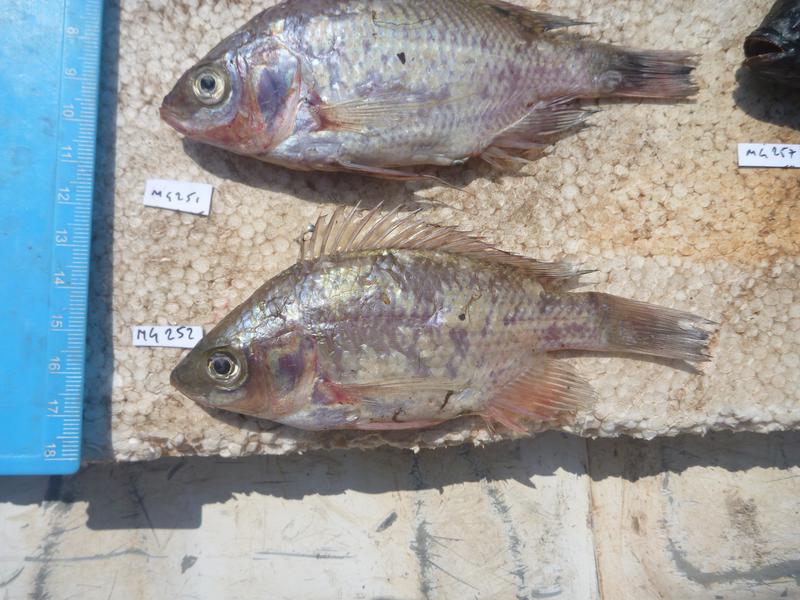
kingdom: Animalia
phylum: Chordata
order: Perciformes
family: Cichlidae
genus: Oreochromis
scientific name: Oreochromis esculentus
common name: Carp
